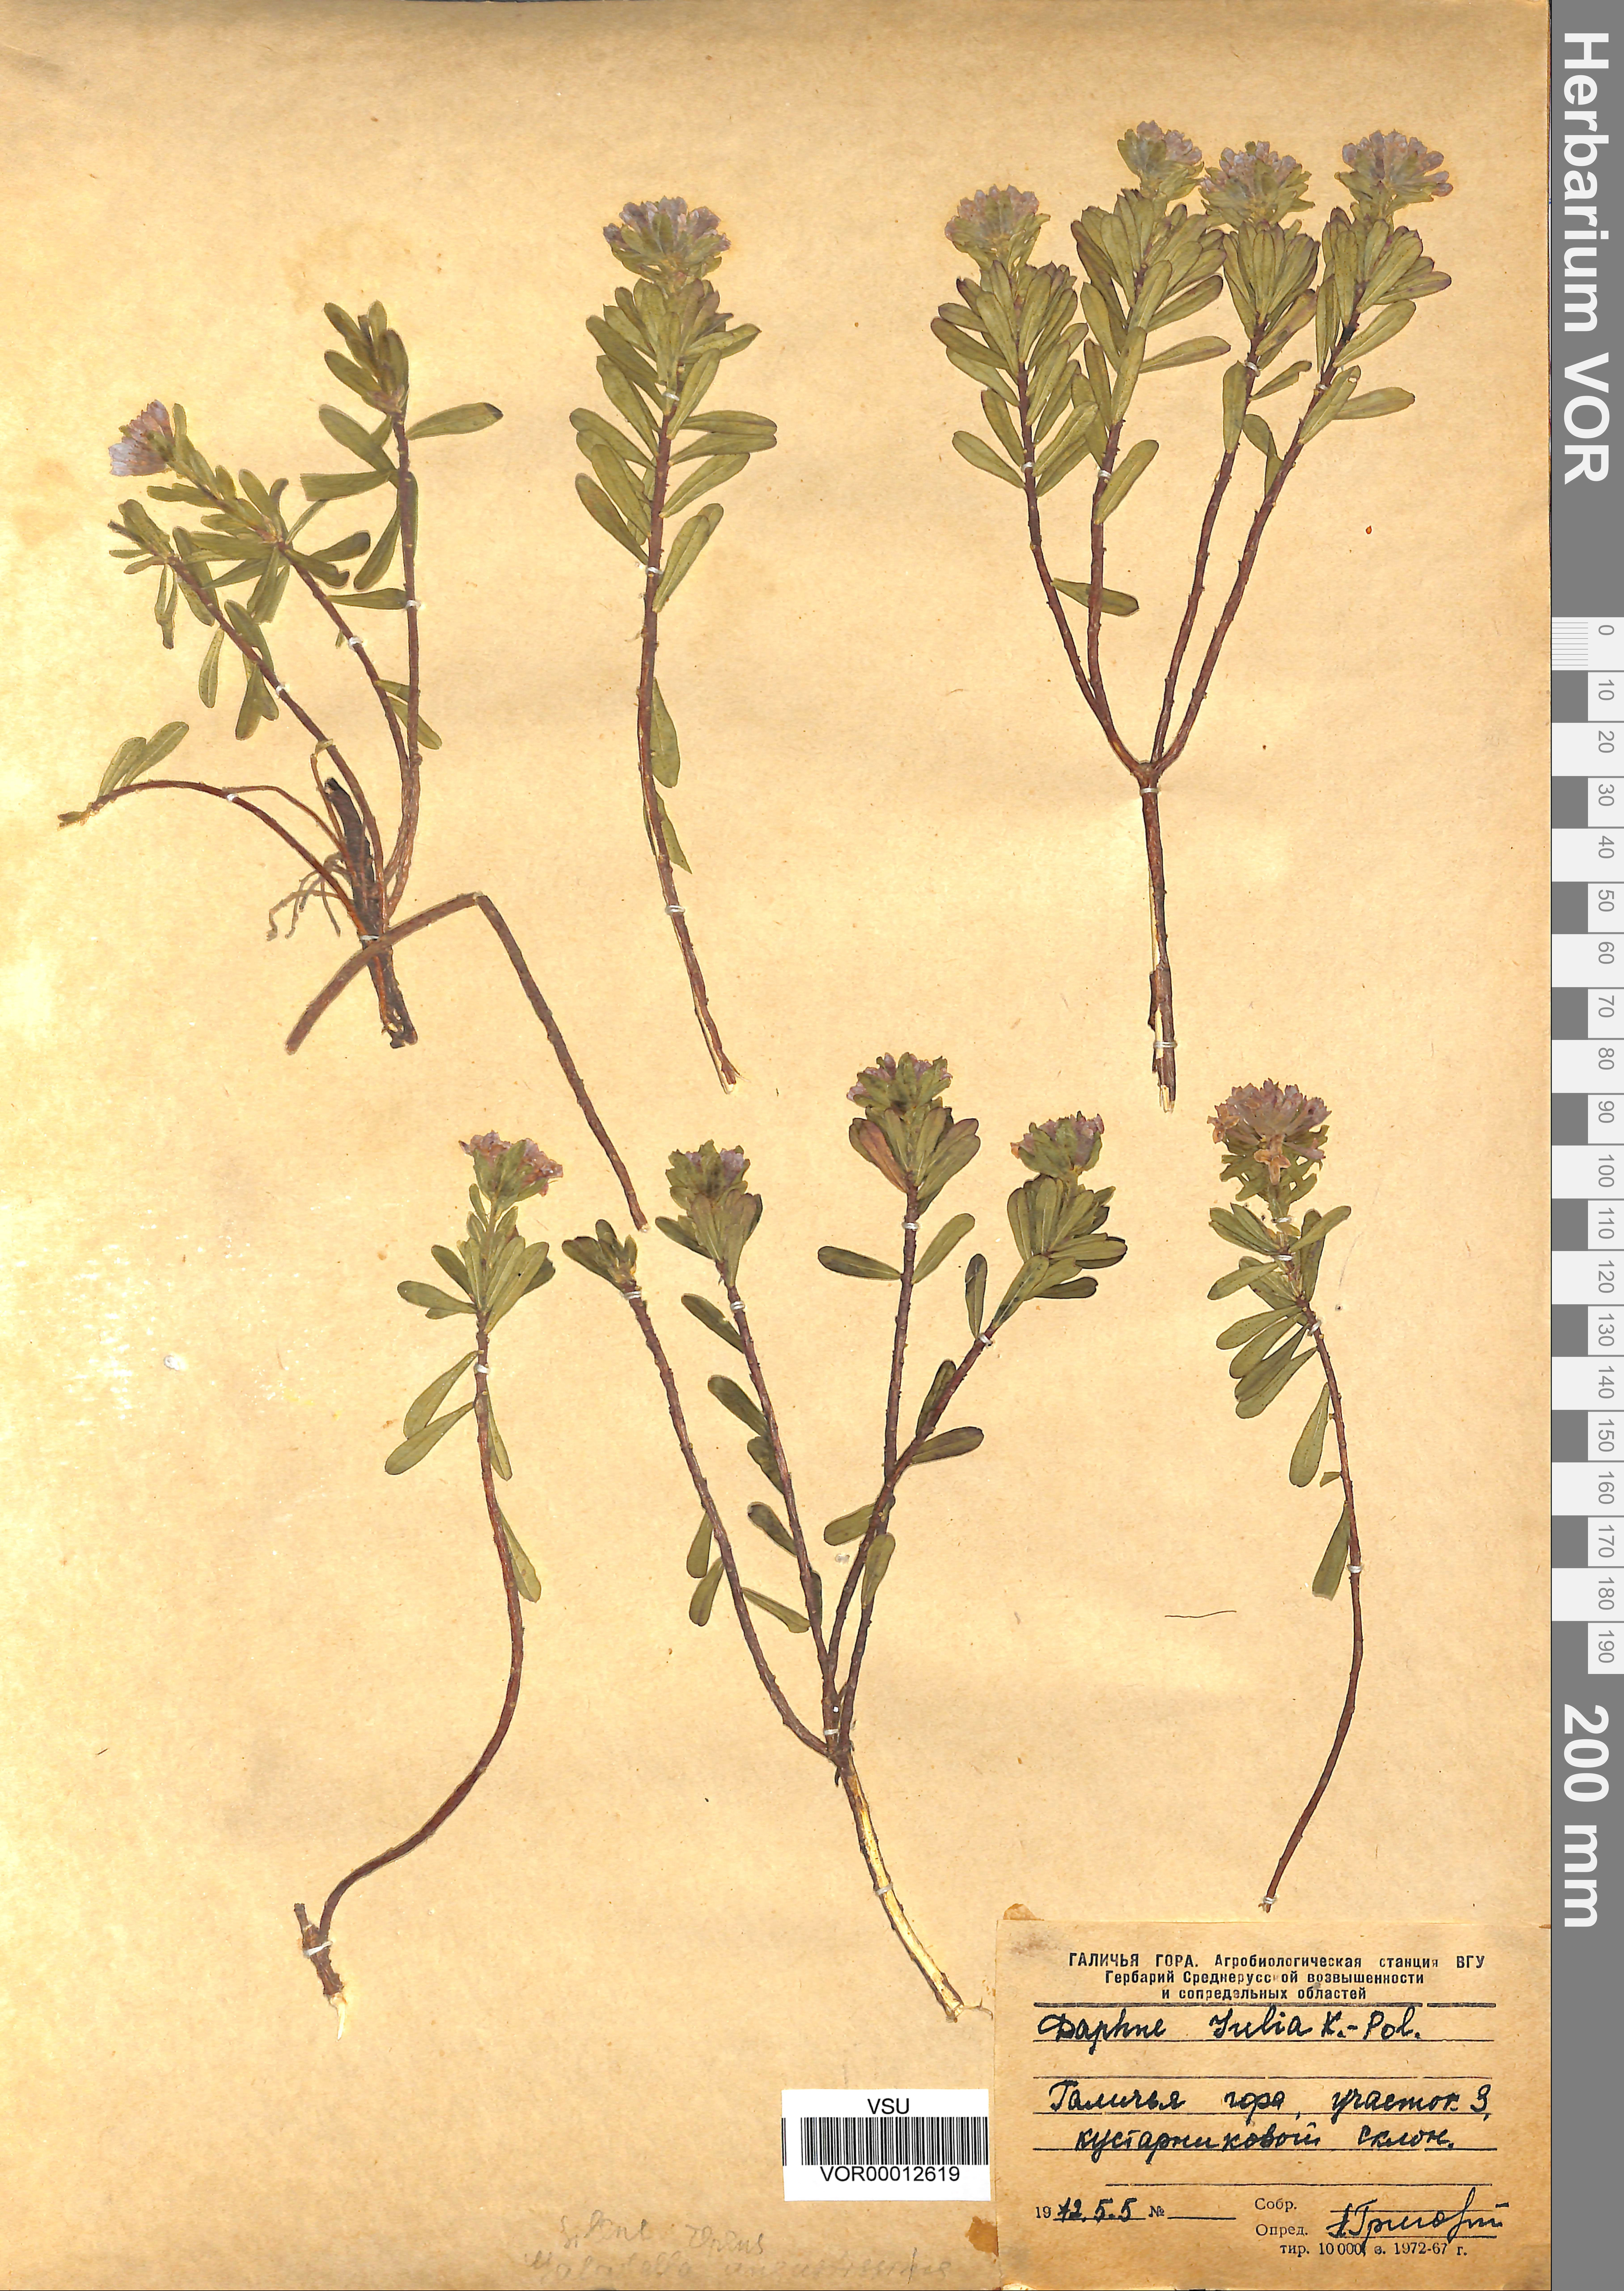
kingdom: Plantae
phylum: Tracheophyta
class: Magnoliopsida
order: Malvales
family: Thymelaeaceae
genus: Daphne
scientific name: Daphne cneorum
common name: Garland-flower
